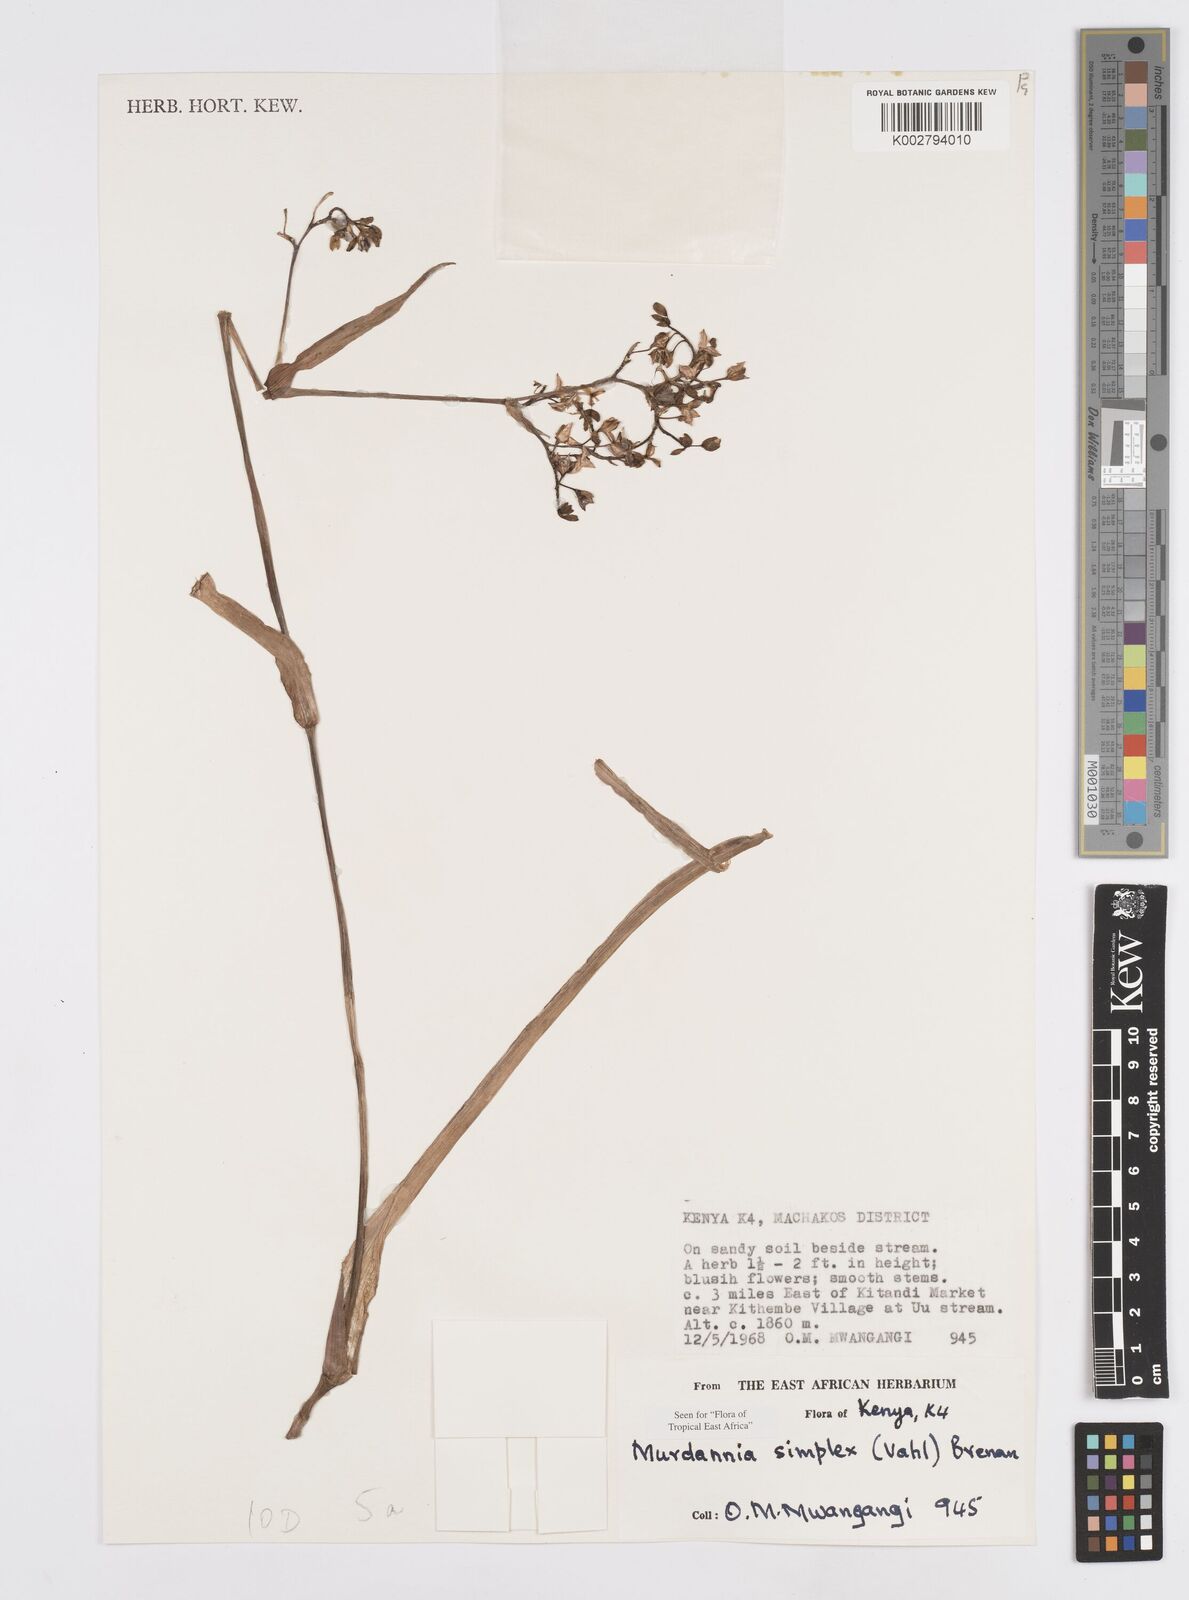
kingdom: Plantae
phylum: Tracheophyta
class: Liliopsida
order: Commelinales
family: Commelinaceae
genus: Murdannia
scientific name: Murdannia simplex
